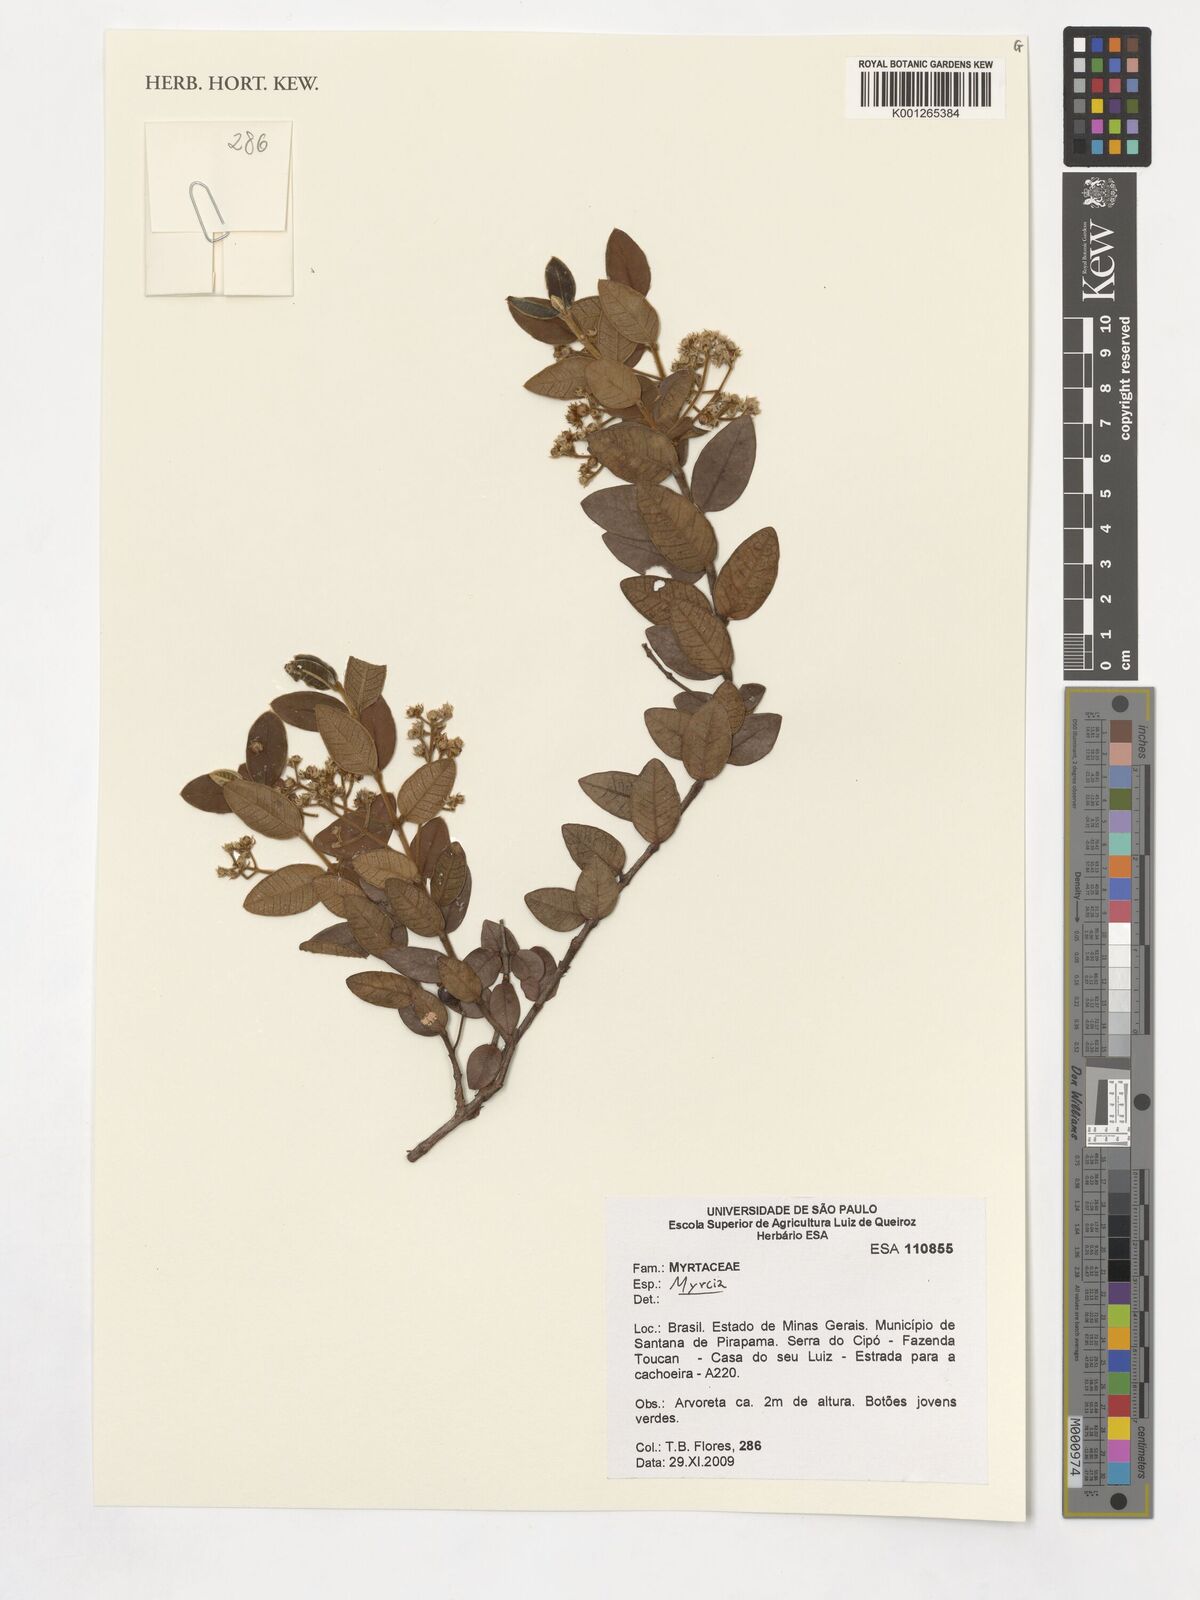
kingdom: Plantae
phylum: Tracheophyta
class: Magnoliopsida
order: Myrtales
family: Myrtaceae
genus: Myrcia
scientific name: Myrcia eriocalyx
